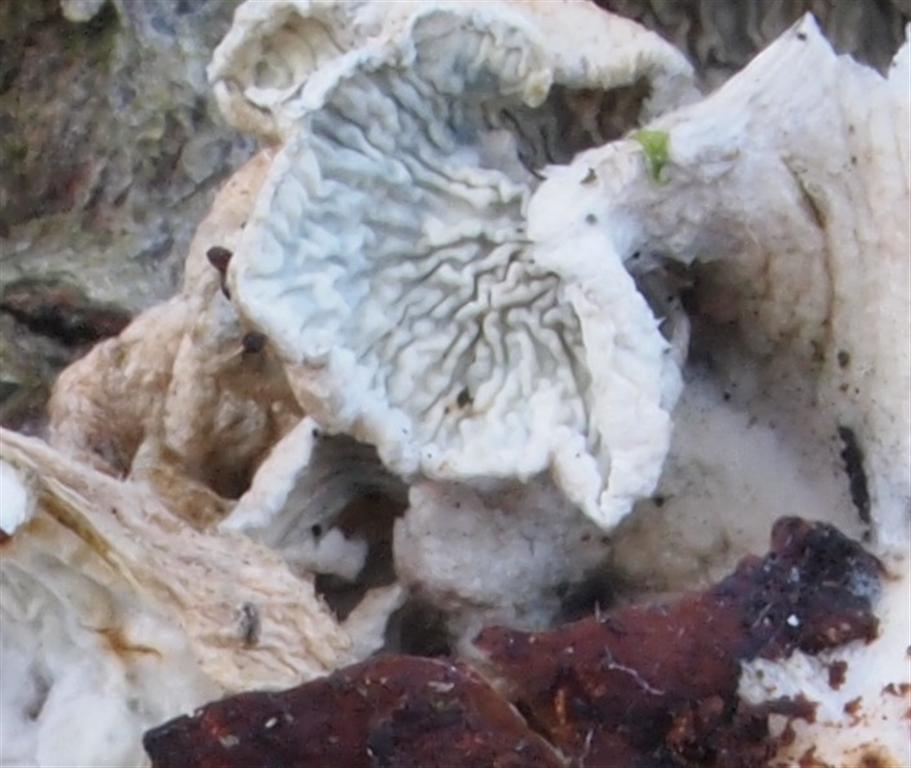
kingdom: Fungi
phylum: Basidiomycota
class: Agaricomycetes
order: Amylocorticiales
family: Amylocorticiaceae
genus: Plicaturopsis
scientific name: Plicaturopsis crispa
